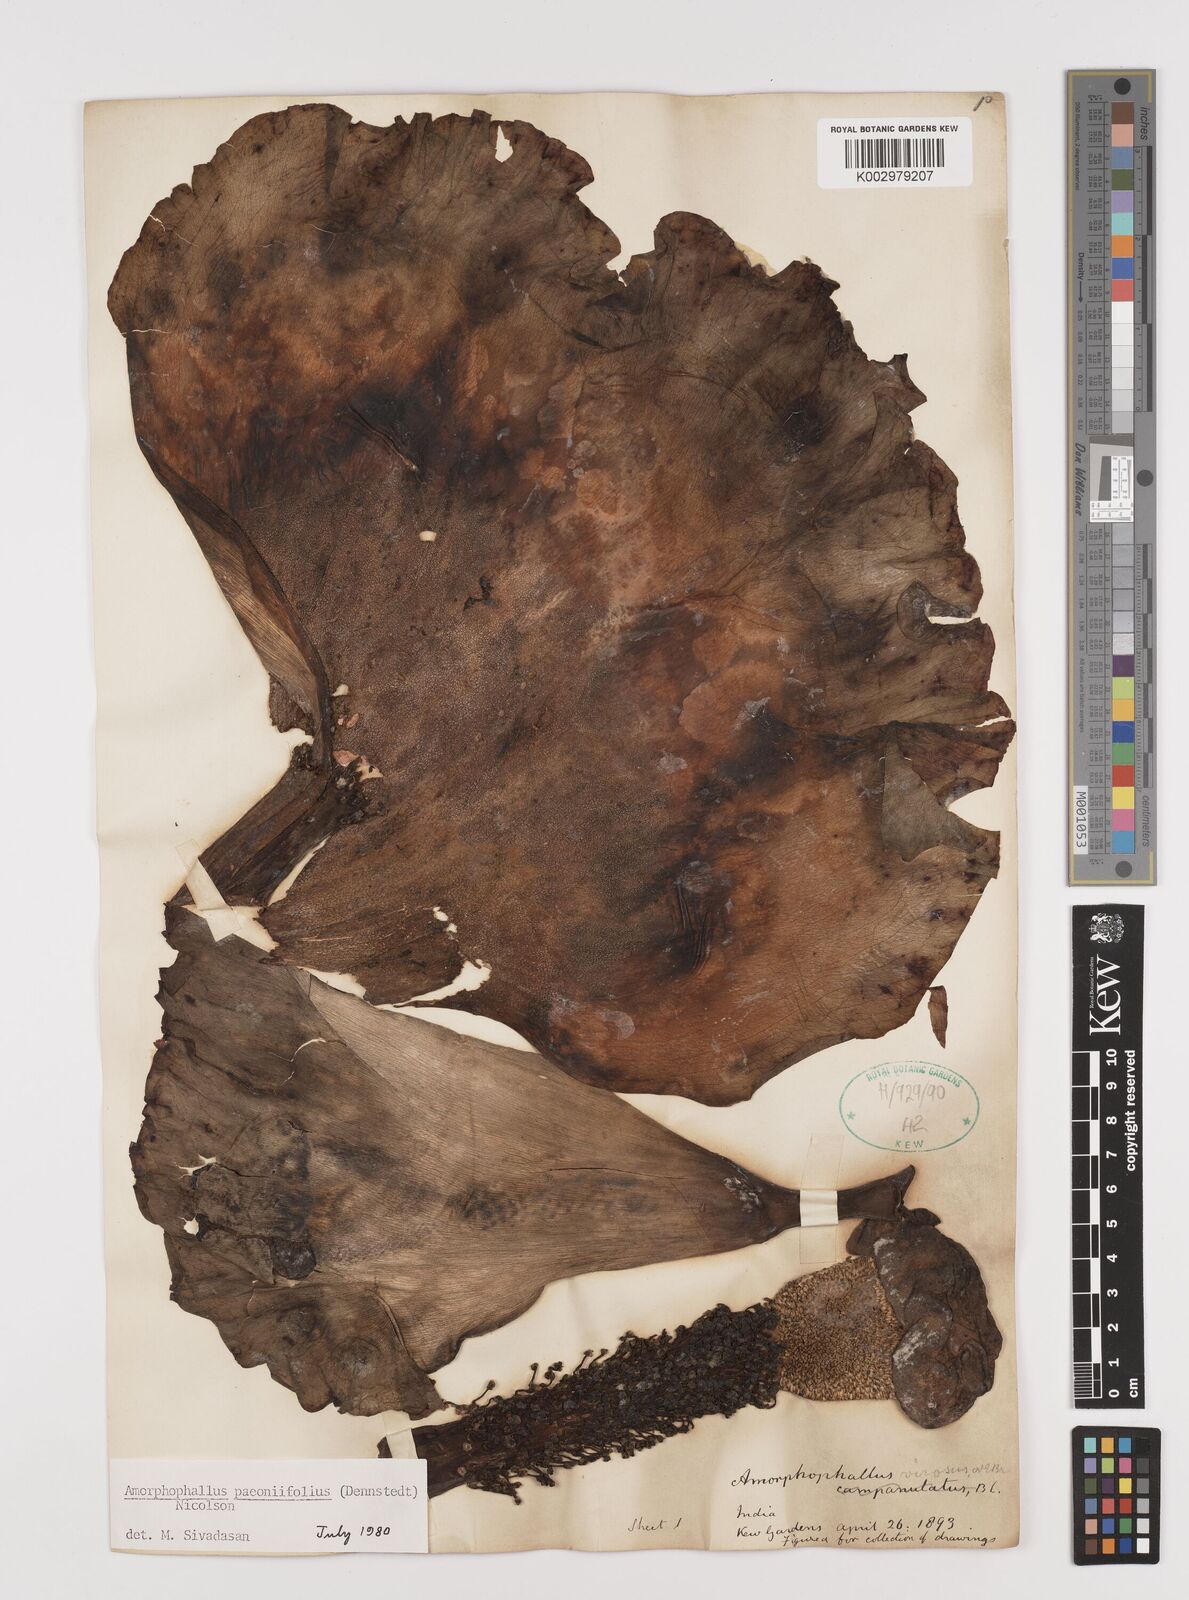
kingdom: Plantae
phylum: Tracheophyta
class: Liliopsida
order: Alismatales
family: Araceae
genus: Amorphophallus
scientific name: Amorphophallus paeoniifolius
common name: Telinga-potato
